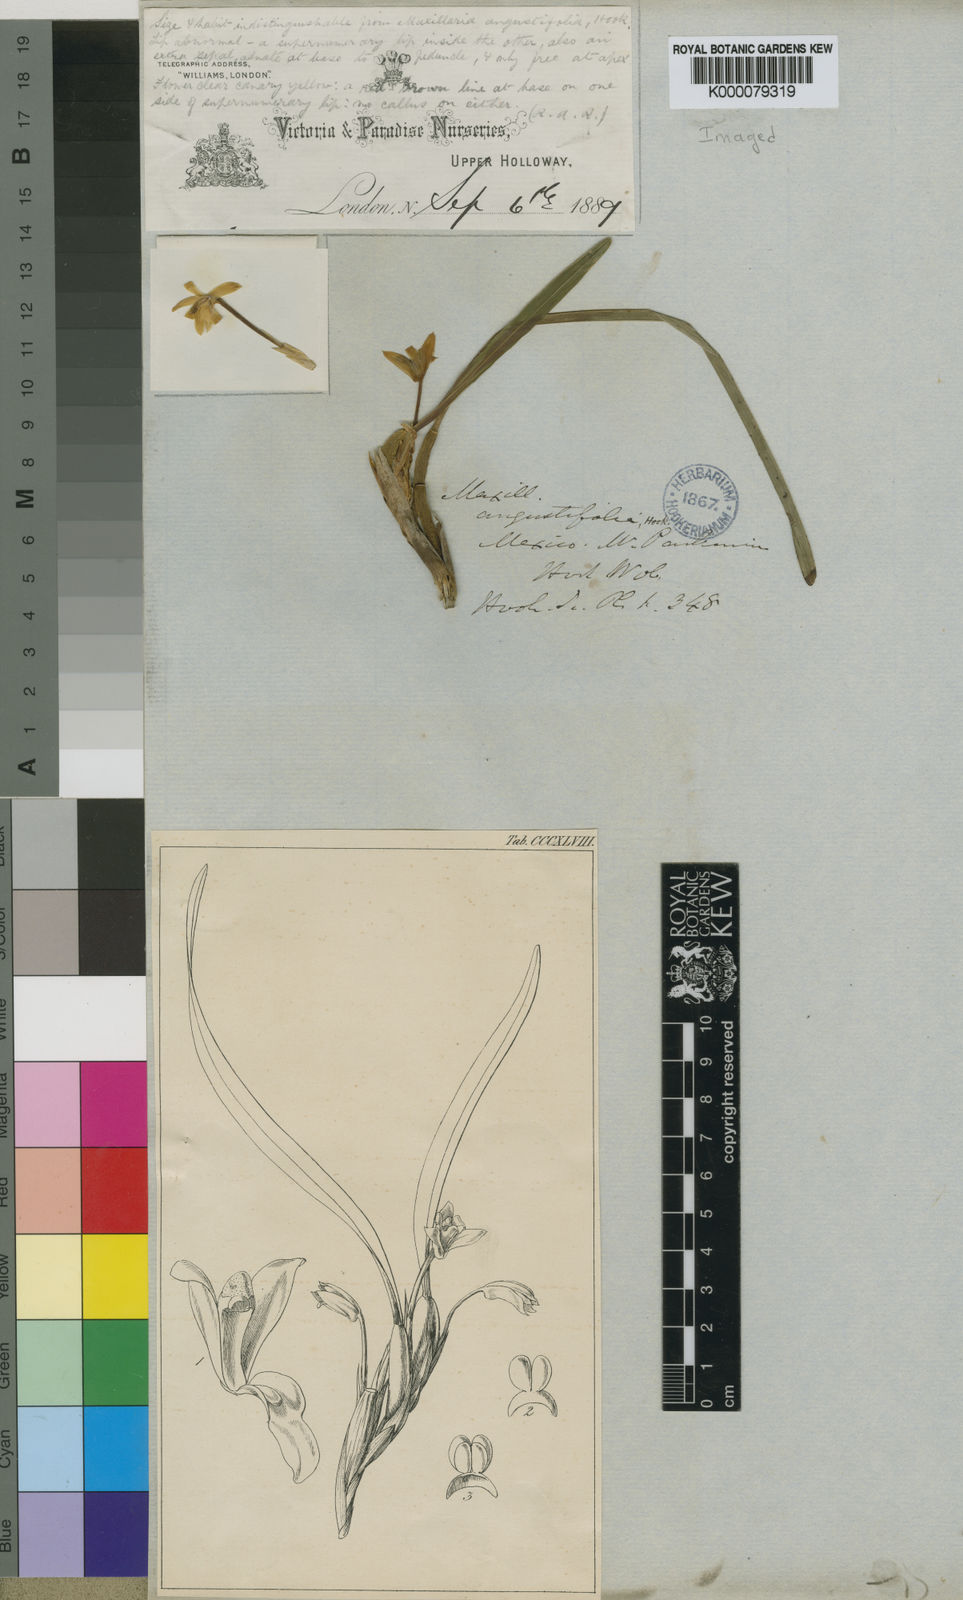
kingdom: Plantae
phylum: Tracheophyta
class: Liliopsida
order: Asparagales
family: Orchidaceae
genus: Maxillaria
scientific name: Maxillaria variabilis
